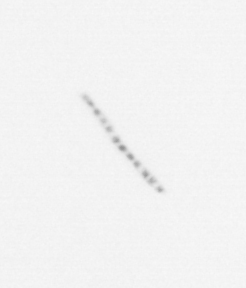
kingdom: Chromista
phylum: Ochrophyta
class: Bacillariophyceae
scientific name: Bacillariophyceae
